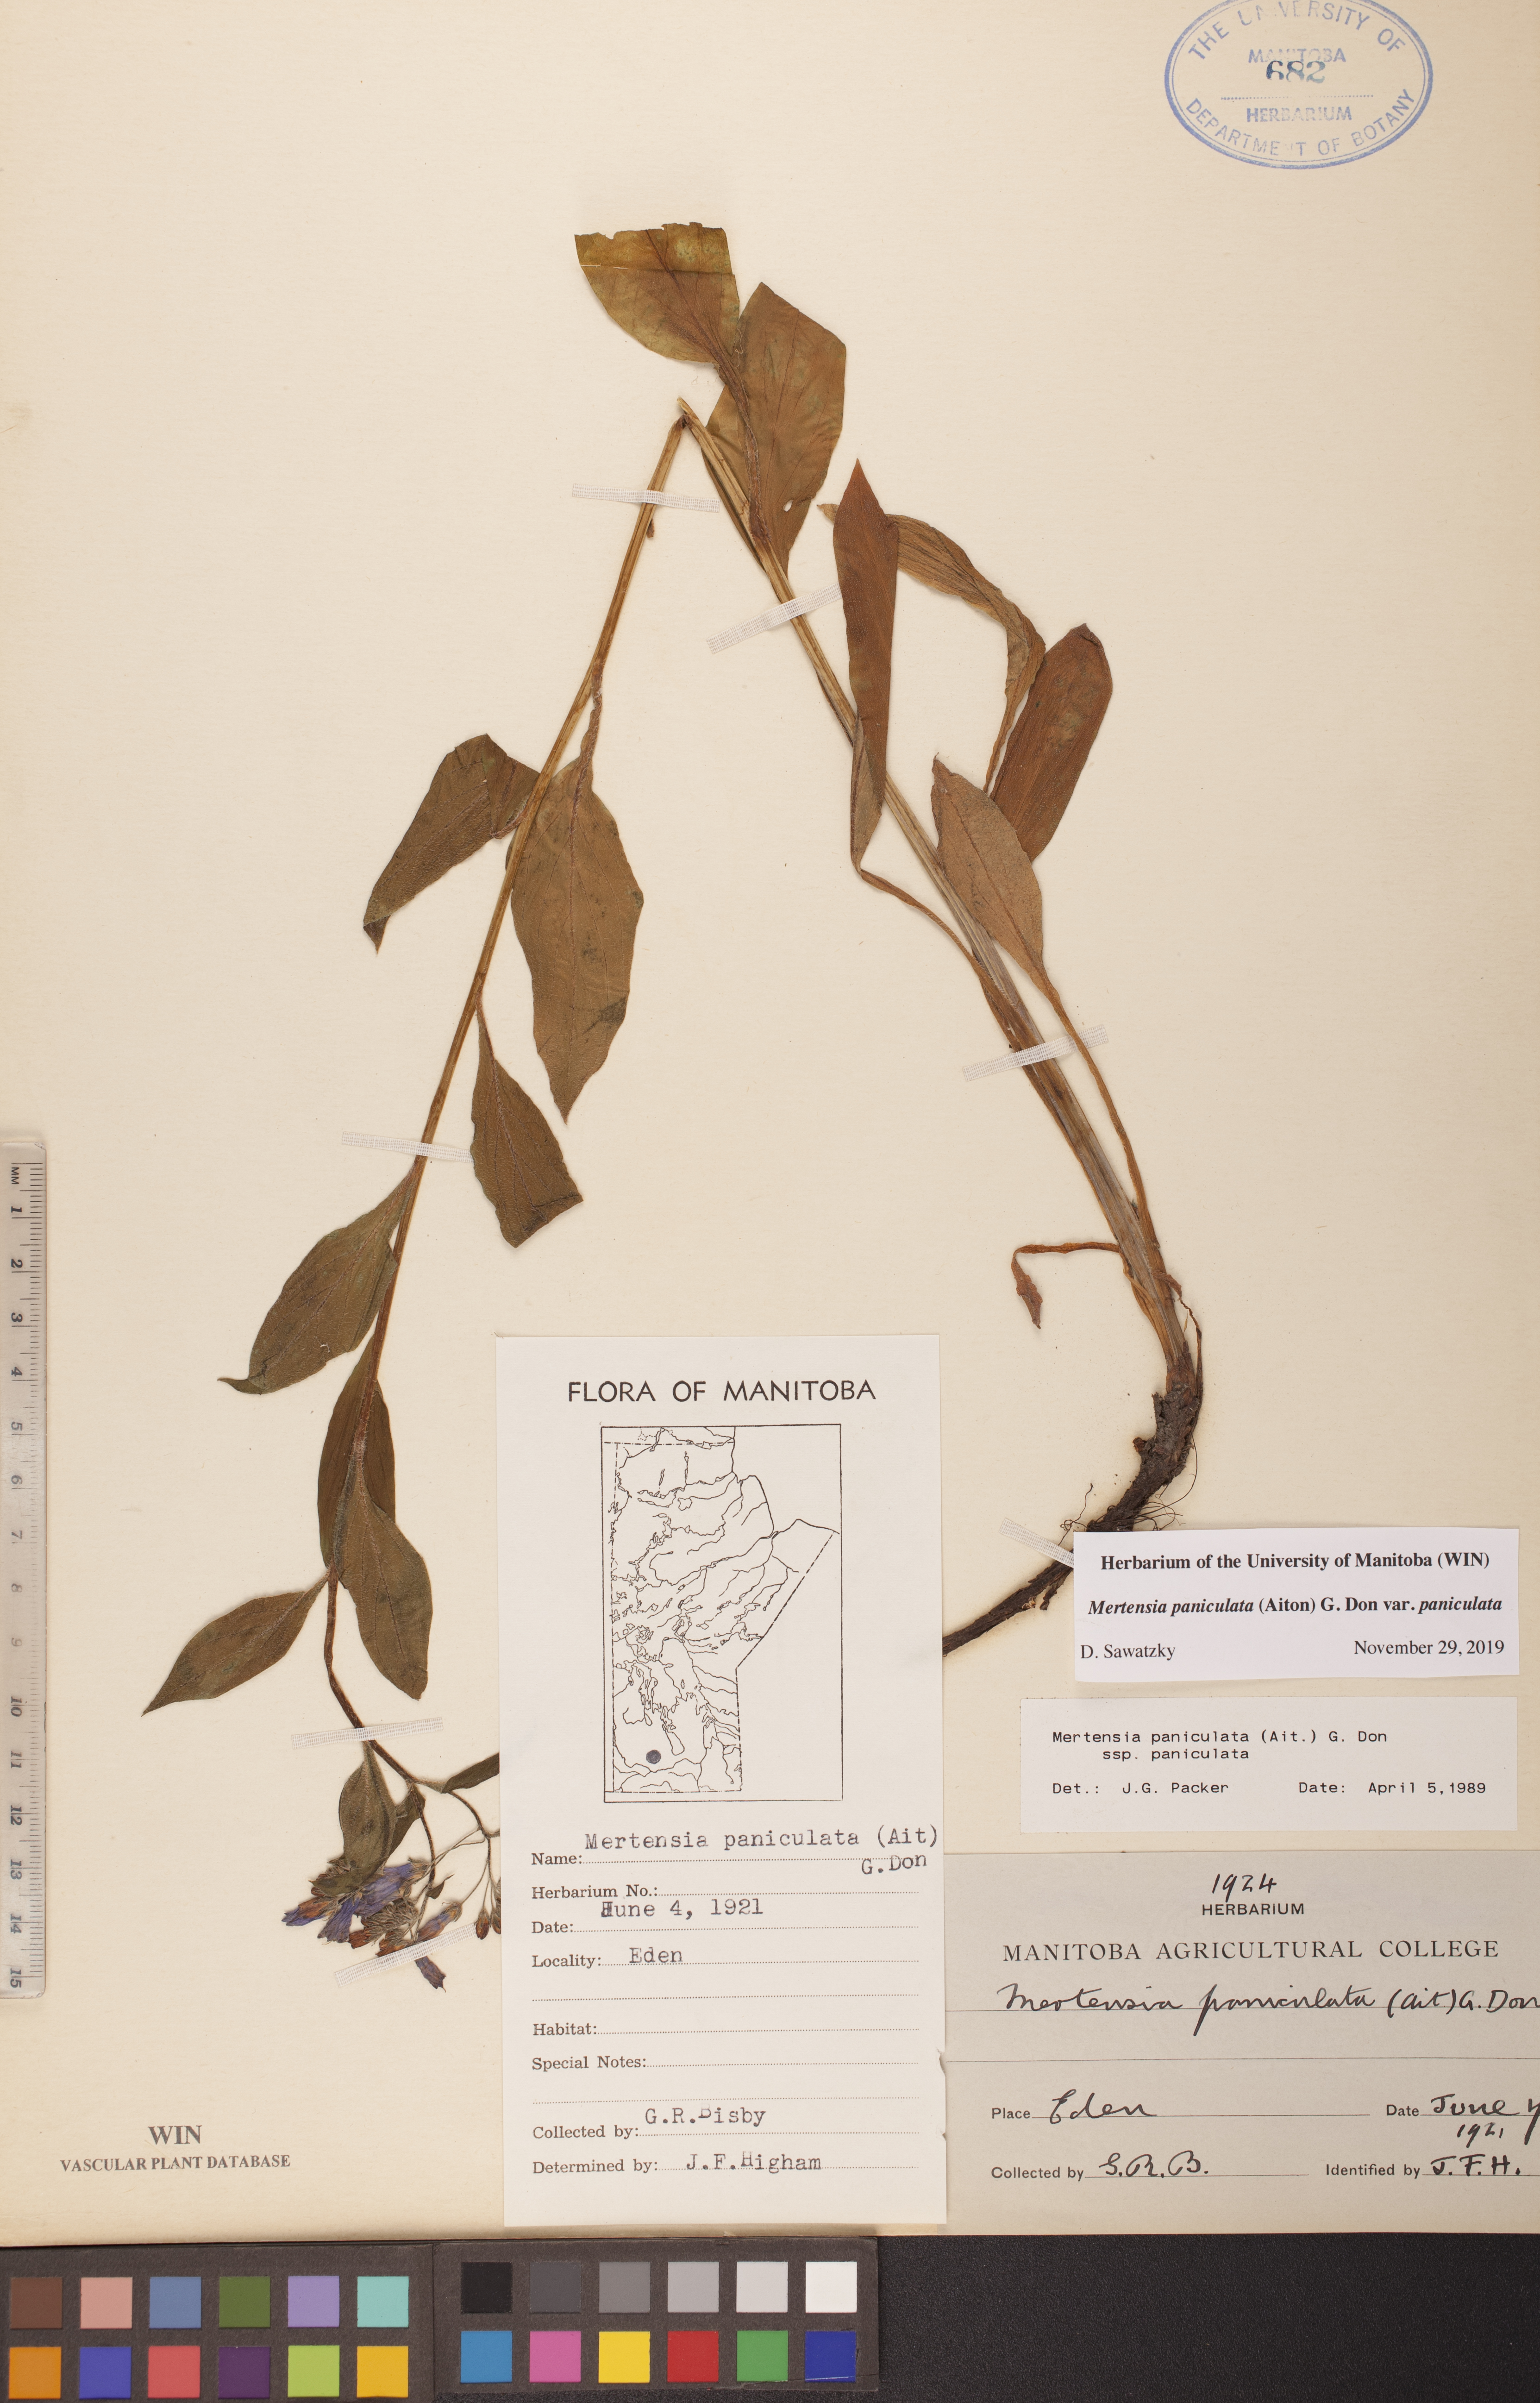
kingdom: Plantae
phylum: Tracheophyta
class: Magnoliopsida
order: Boraginales
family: Boraginaceae
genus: Mertensia
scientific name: Mertensia paniculata
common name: Panicled bluebells
